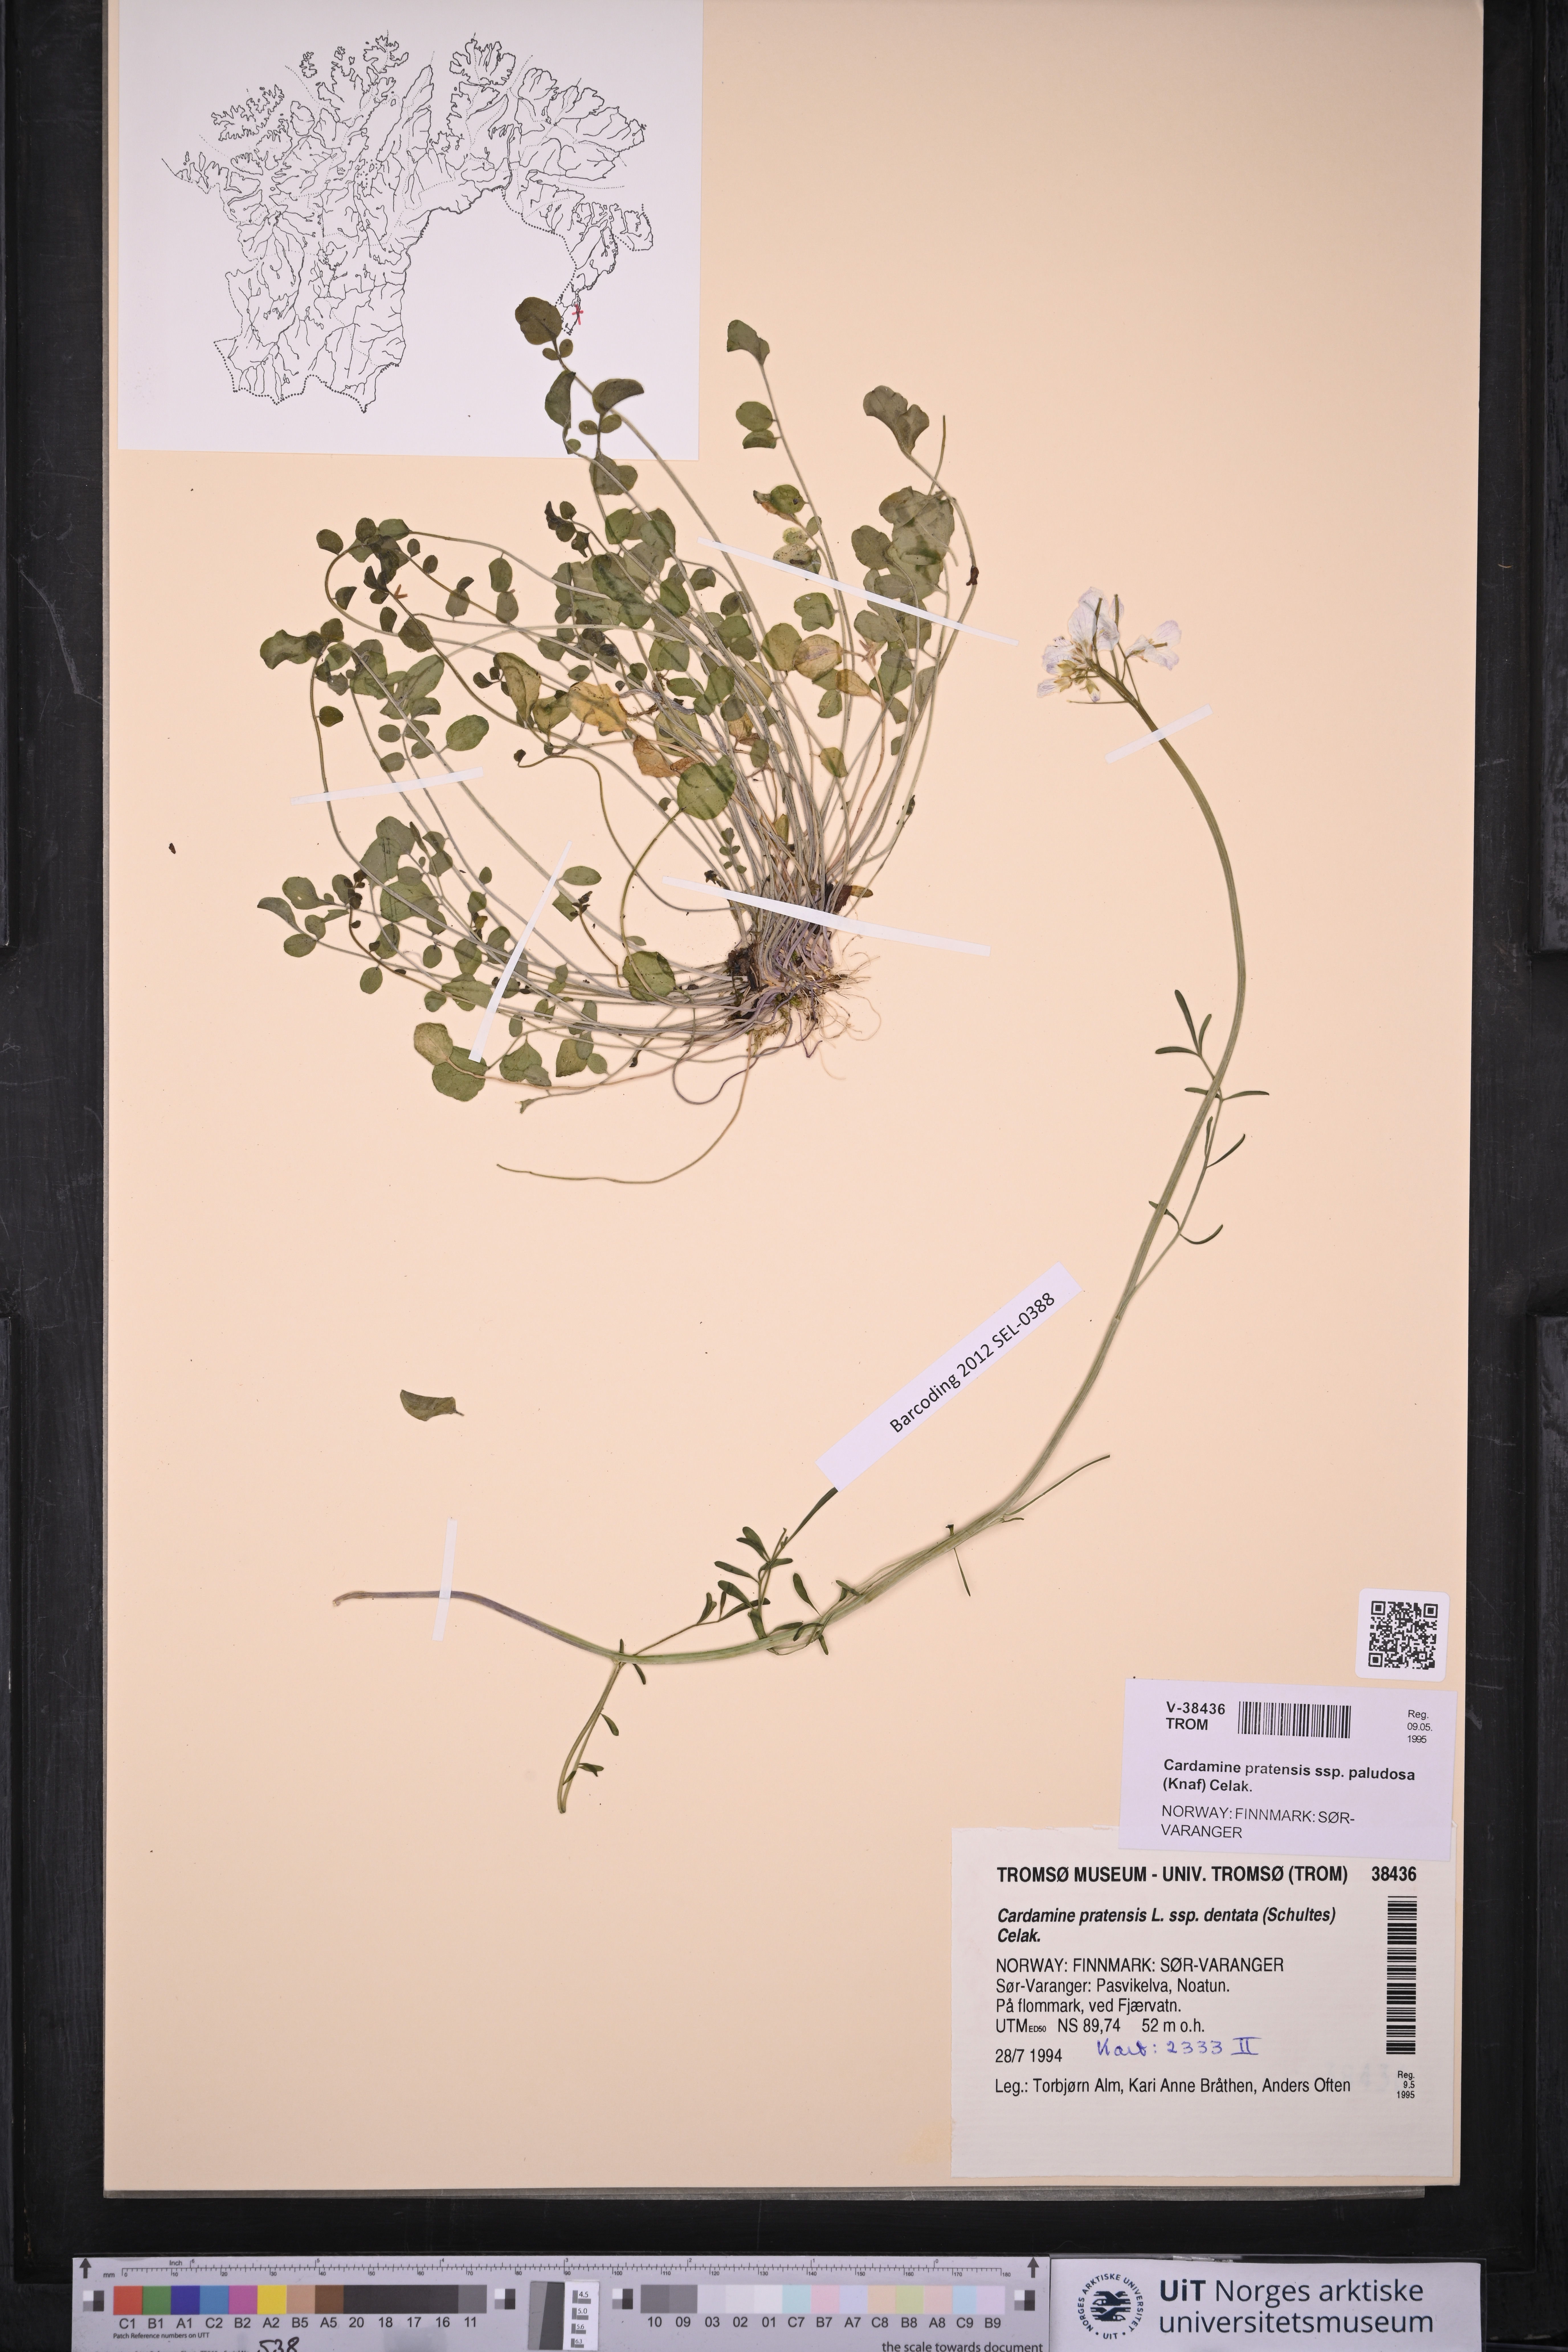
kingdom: Plantae
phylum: Tracheophyta
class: Magnoliopsida
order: Brassicales
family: Brassicaceae
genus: Cardamine
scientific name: Cardamine dentata
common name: Toothed bittercress
